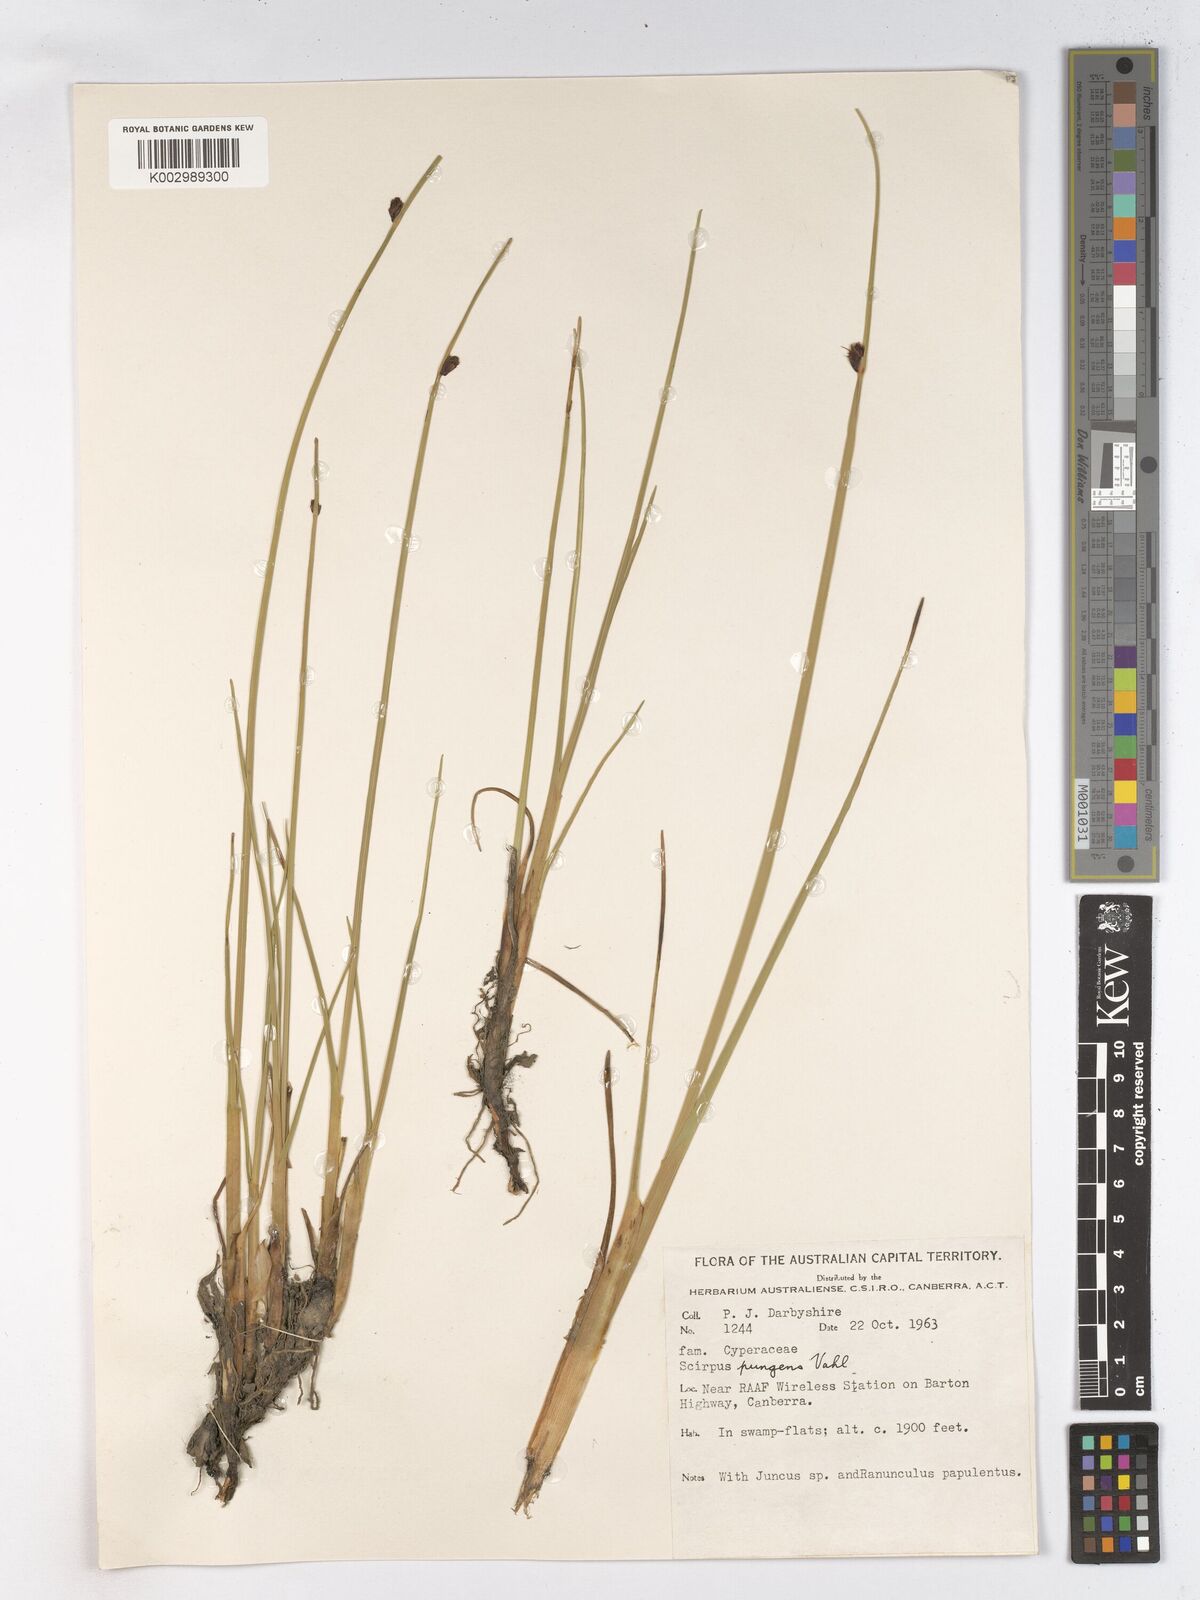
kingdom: Plantae
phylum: Tracheophyta
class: Liliopsida
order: Poales
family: Cyperaceae
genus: Schoenoplectus
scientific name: Schoenoplectus pungens
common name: Sharp club-rush
